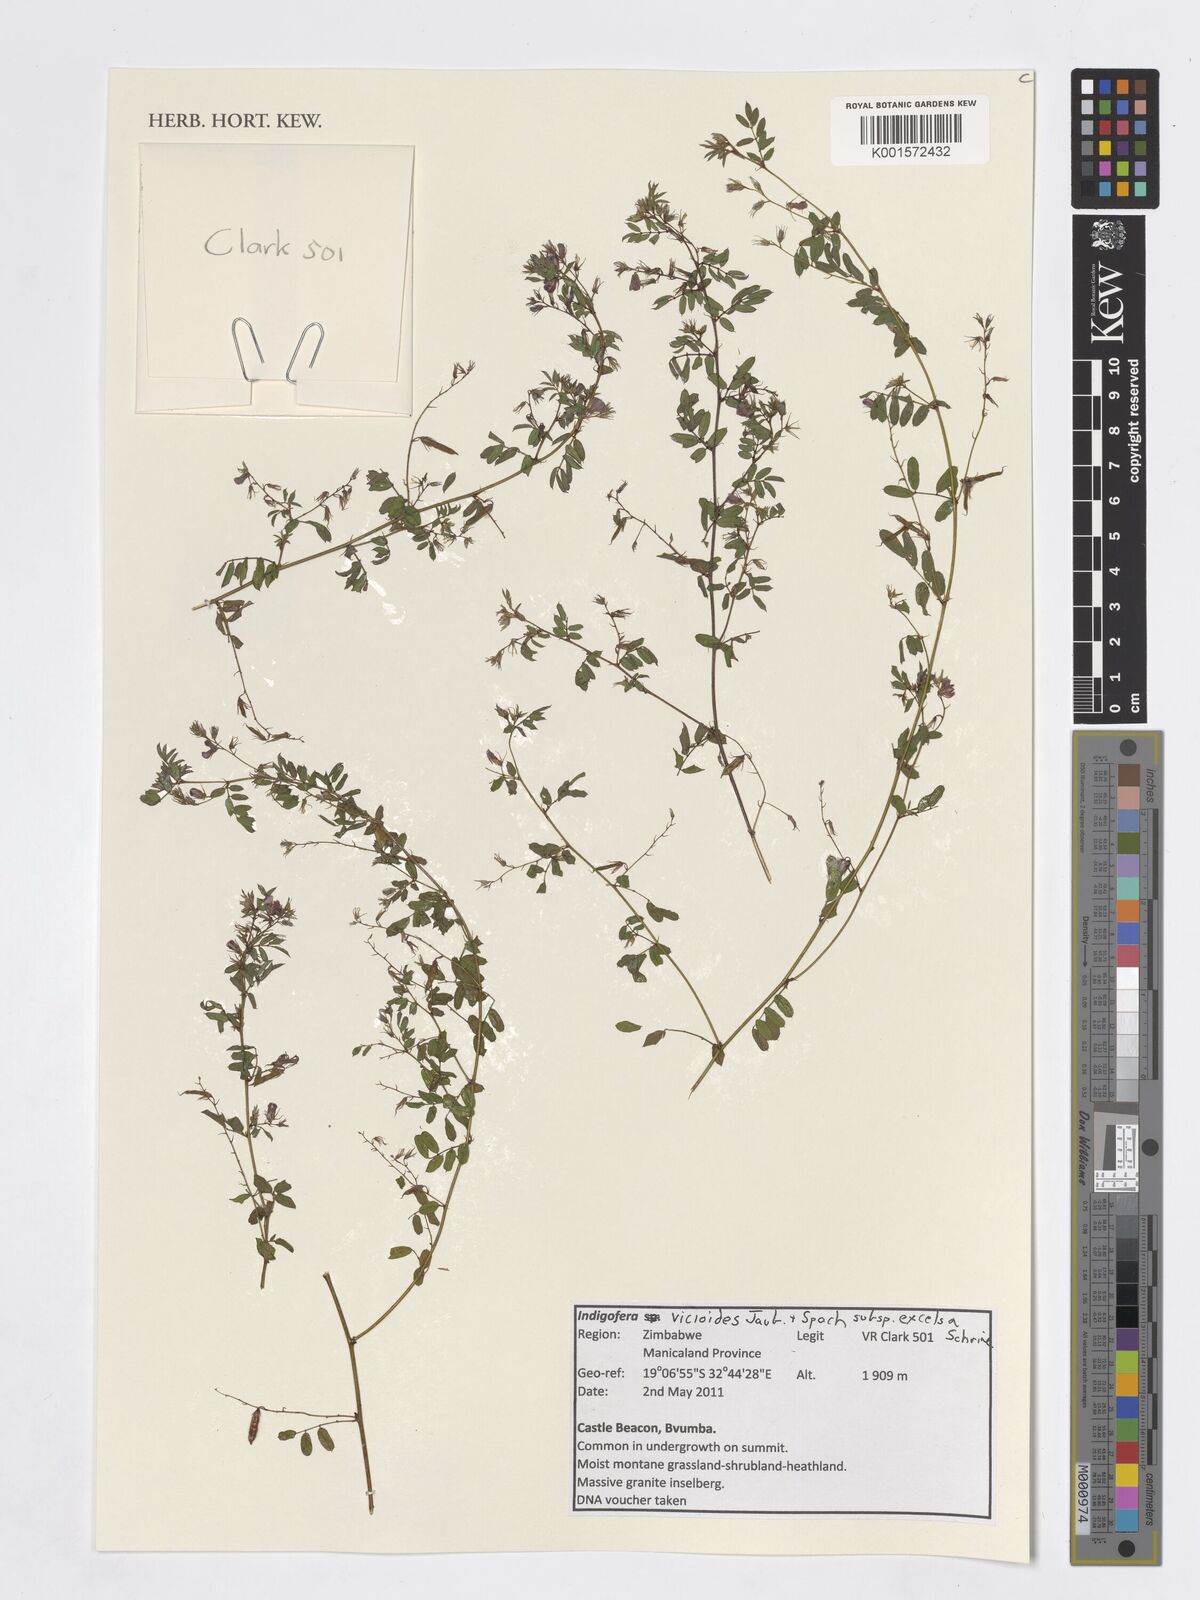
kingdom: Plantae
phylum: Tracheophyta
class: Magnoliopsida
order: Fabales
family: Fabaceae
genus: Indigofera
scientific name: Indigofera vicioides
